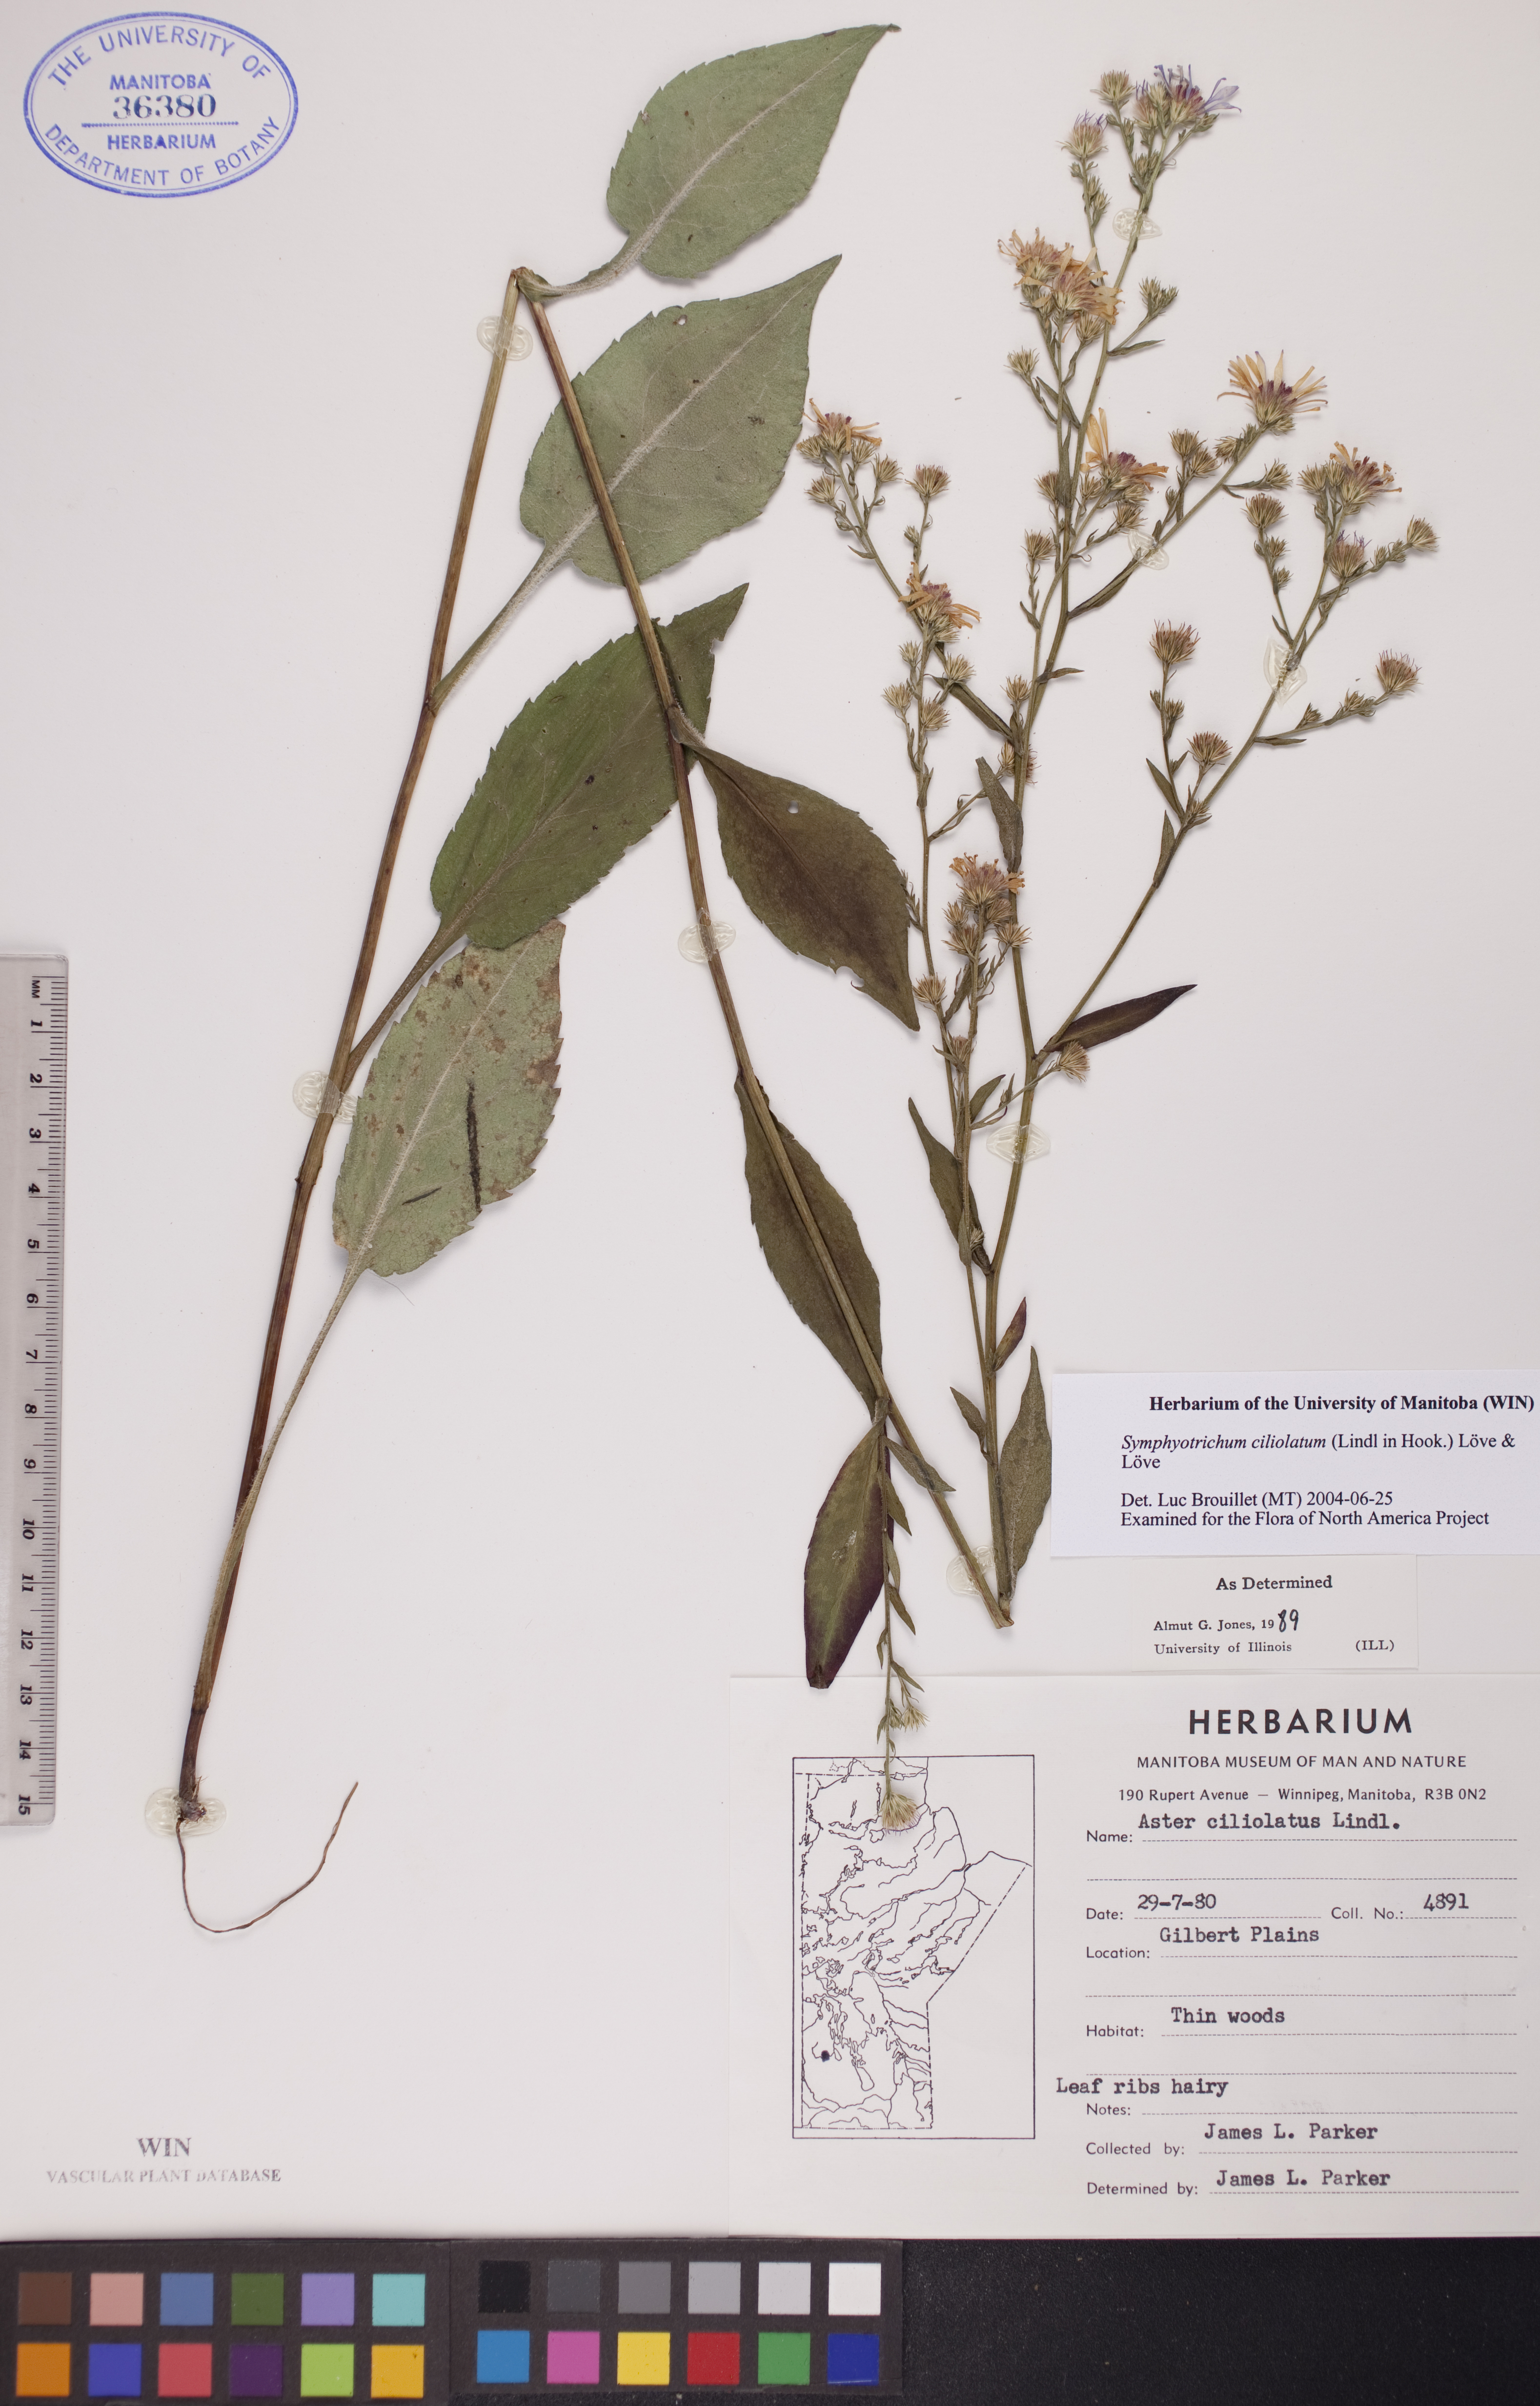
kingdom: Plantae
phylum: Tracheophyta
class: Magnoliopsida
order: Asterales
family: Asteraceae
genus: Symphyotrichum
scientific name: Symphyotrichum ciliolatum
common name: Fringed blue aster
